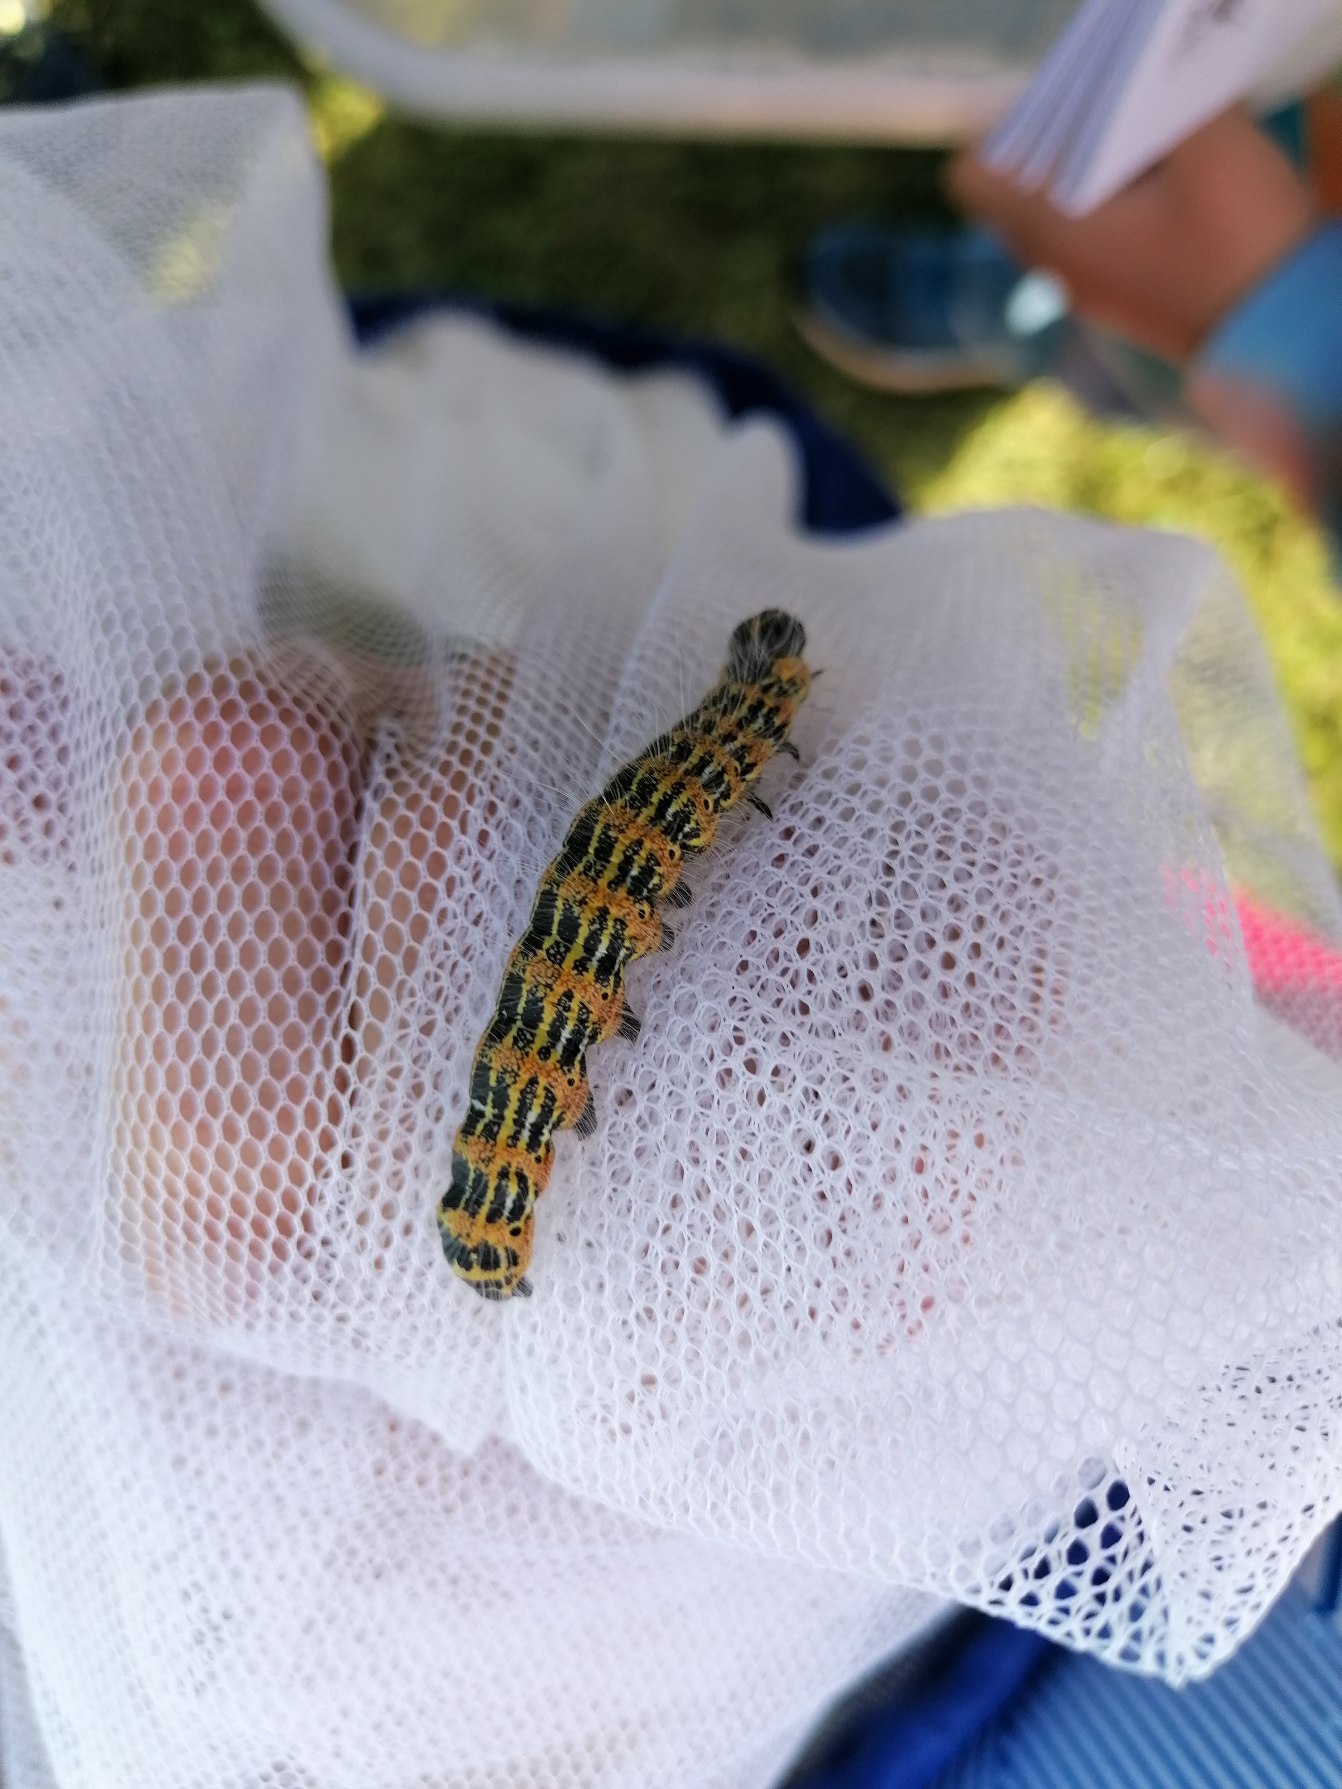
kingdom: Animalia
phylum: Arthropoda
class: Insecta
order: Lepidoptera
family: Notodontidae
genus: Phalera
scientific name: Phalera bucephala
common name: Måneplet
